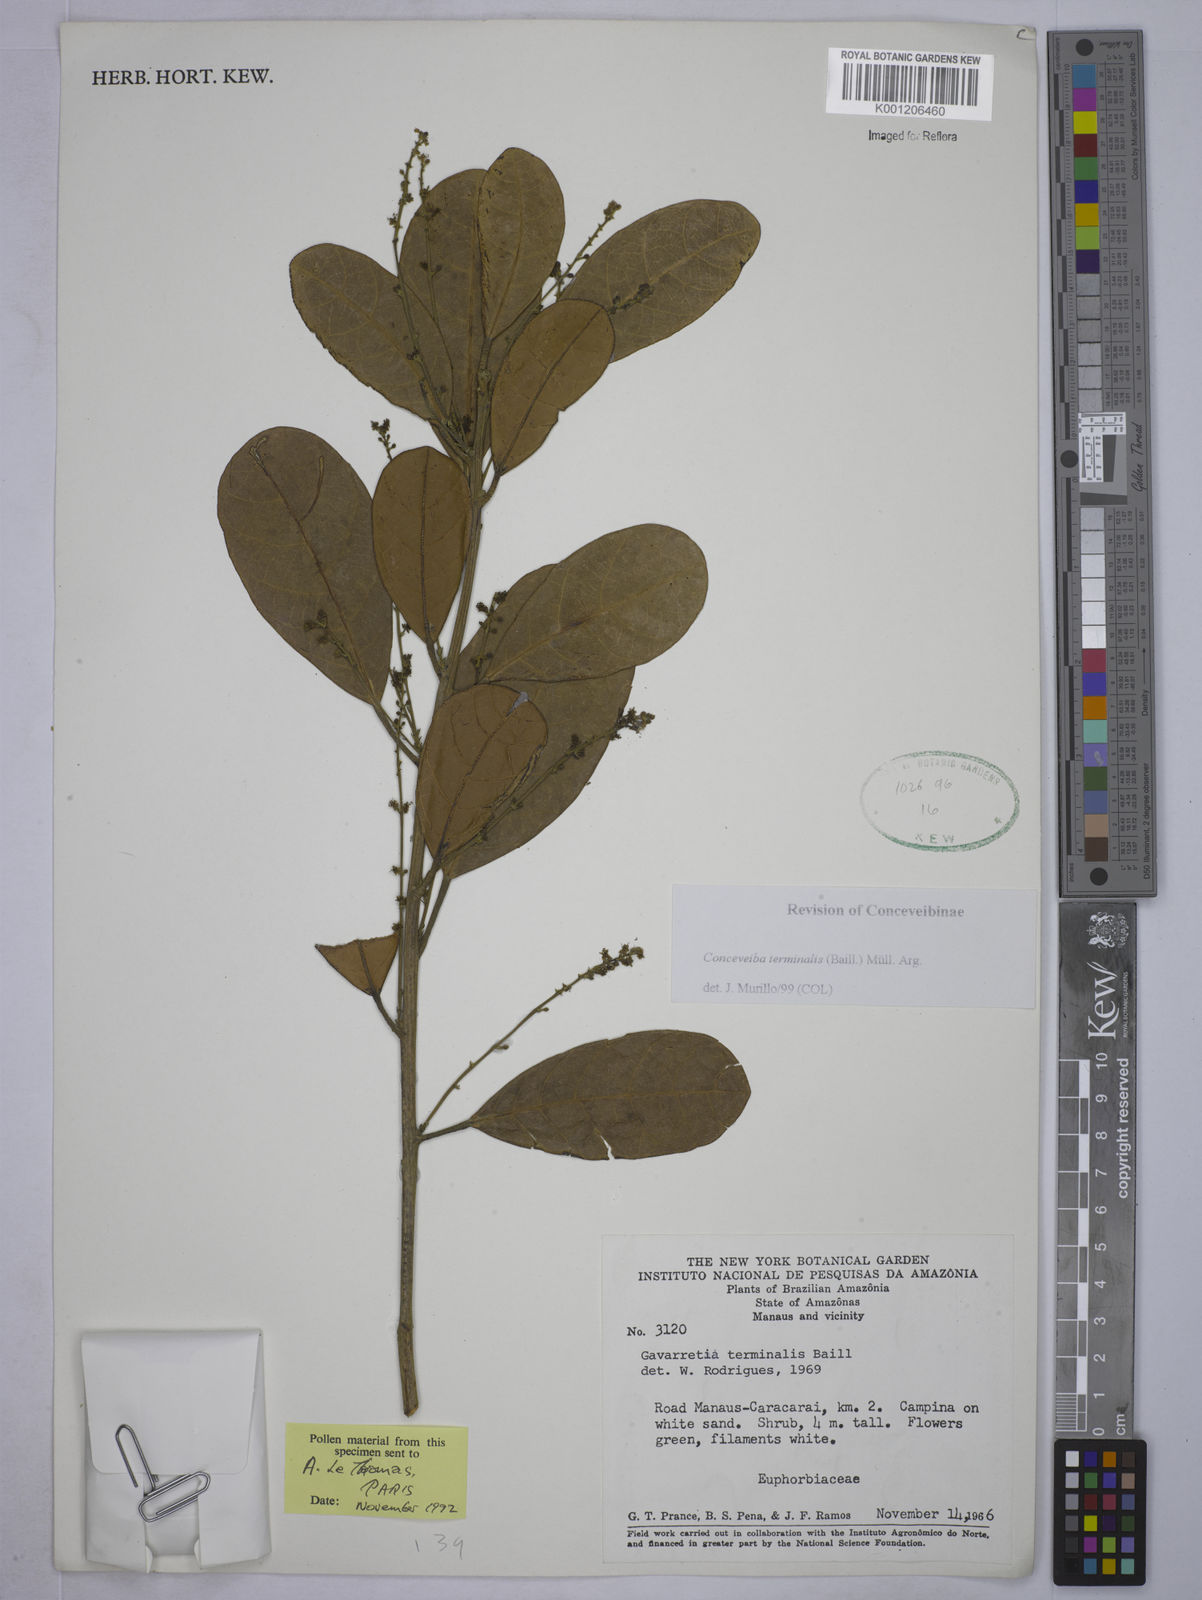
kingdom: Plantae
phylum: Tracheophyta
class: Magnoliopsida
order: Malpighiales
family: Euphorbiaceae
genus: Conceveiba
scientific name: Conceveiba
